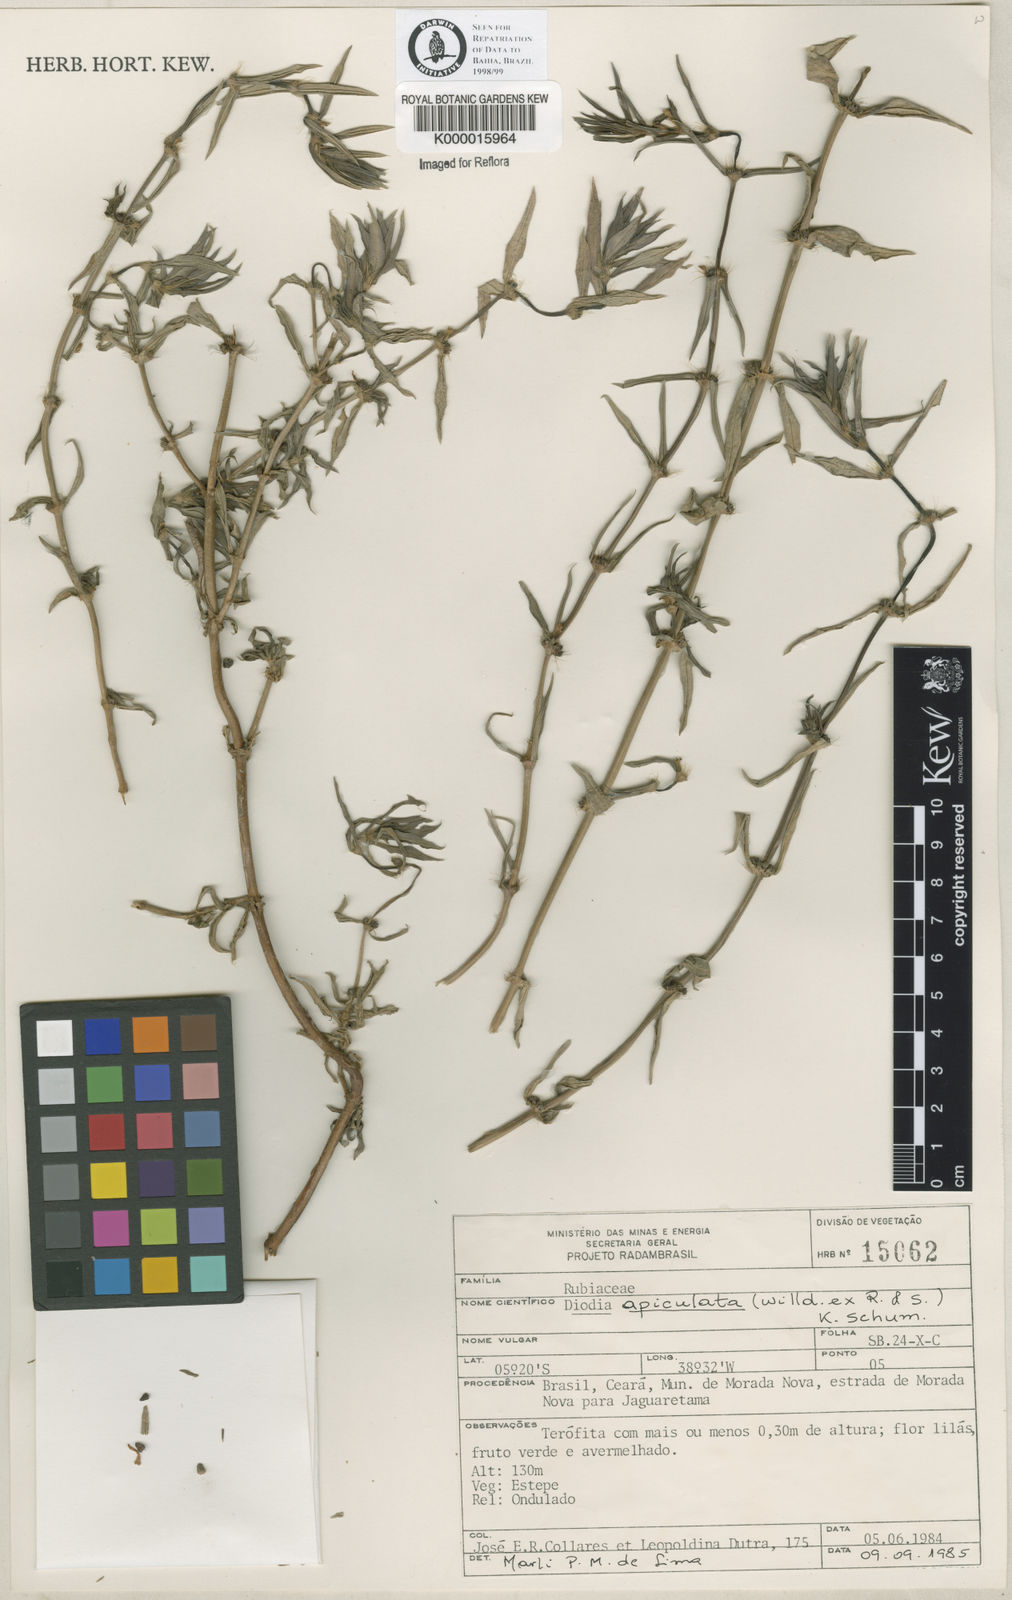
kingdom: Plantae
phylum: Tracheophyta
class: Magnoliopsida
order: Gentianales
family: Rubiaceae
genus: Hexasepalum
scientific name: Hexasepalum apiculatum
